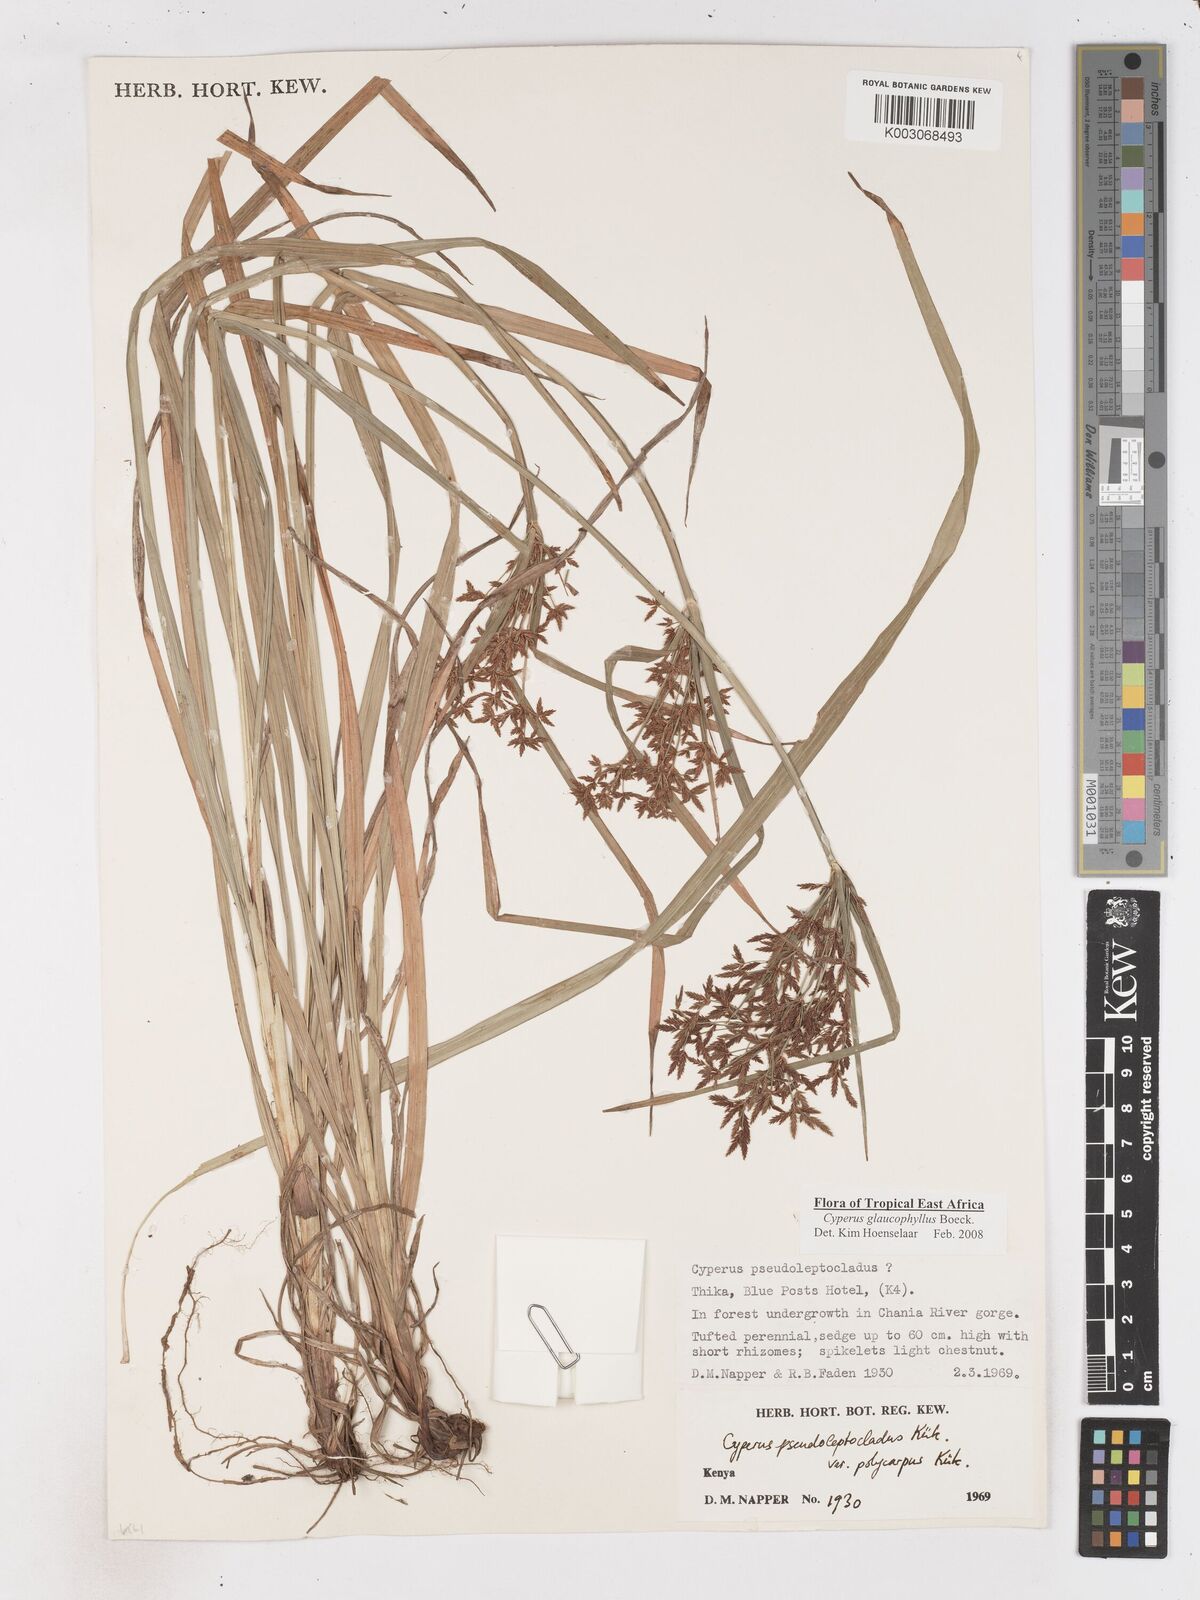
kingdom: Plantae
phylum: Tracheophyta
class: Liliopsida
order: Poales
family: Cyperaceae
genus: Cyperus
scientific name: Cyperus glaucophyllus
